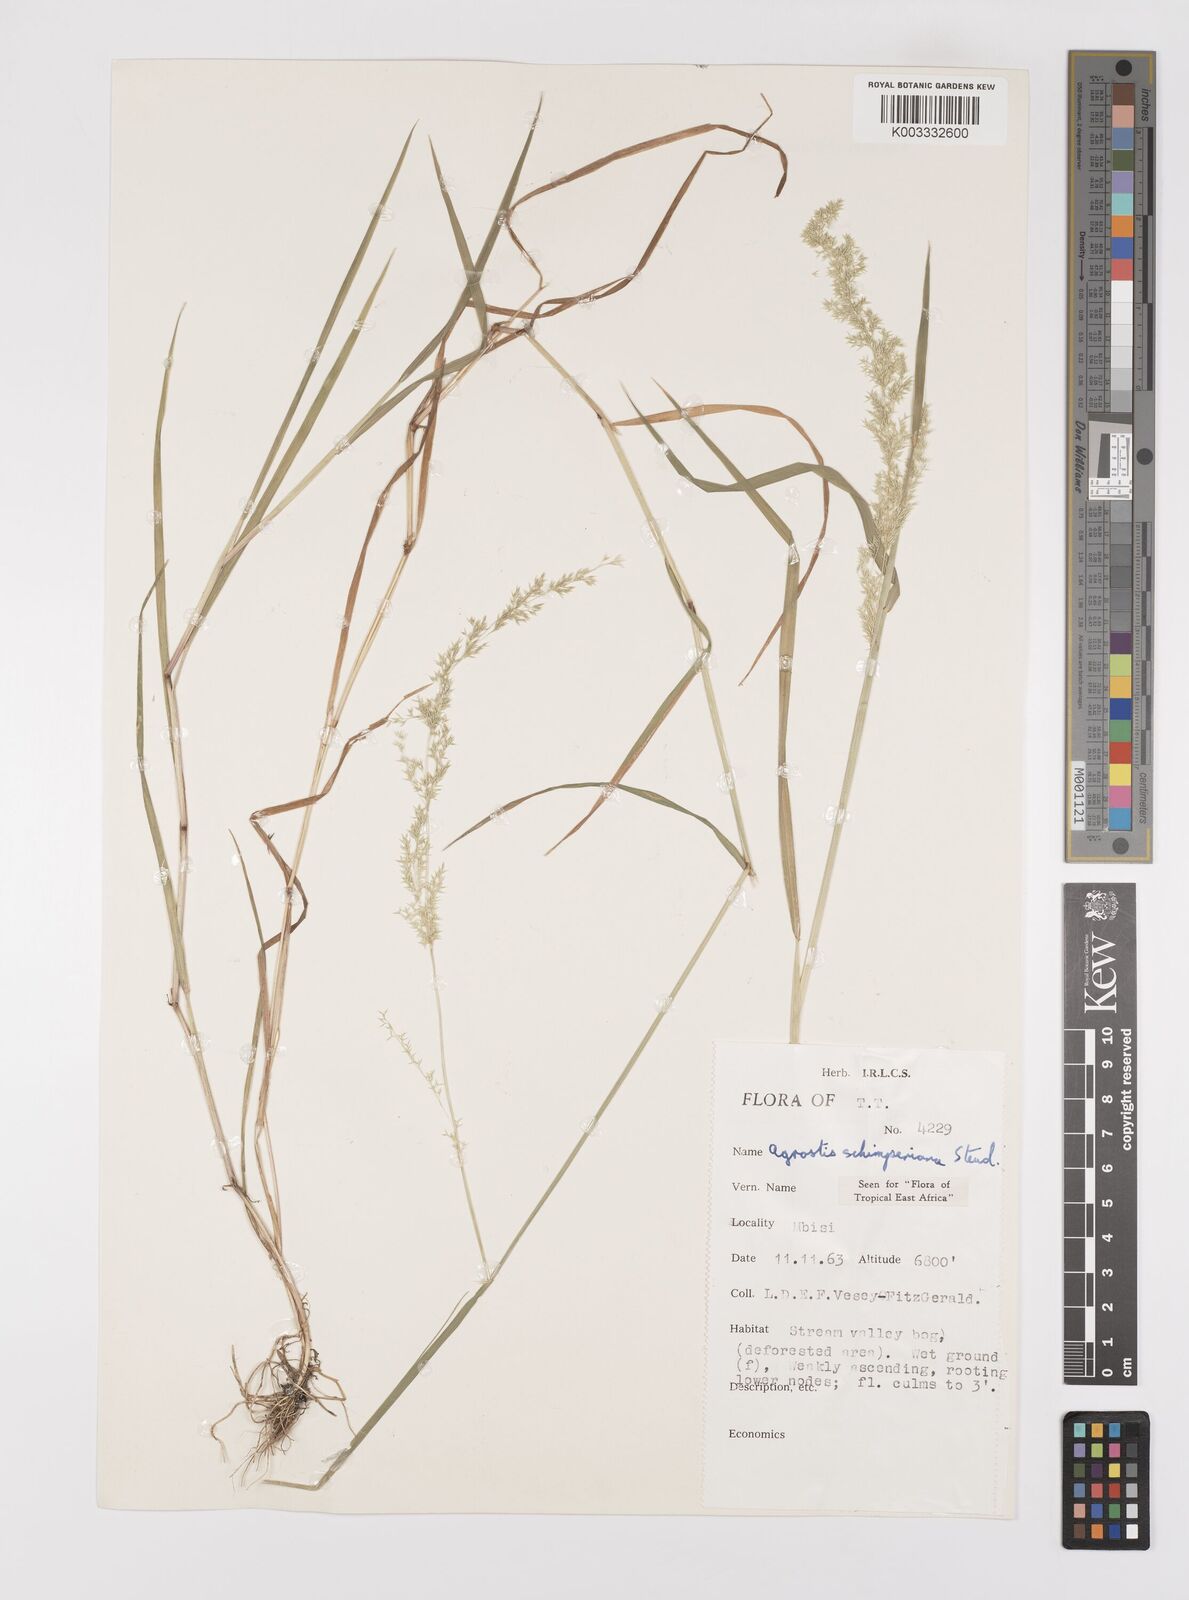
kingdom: Plantae
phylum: Tracheophyta
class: Liliopsida
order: Poales
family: Poaceae
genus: Polypogon
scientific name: Polypogon schimperianus
